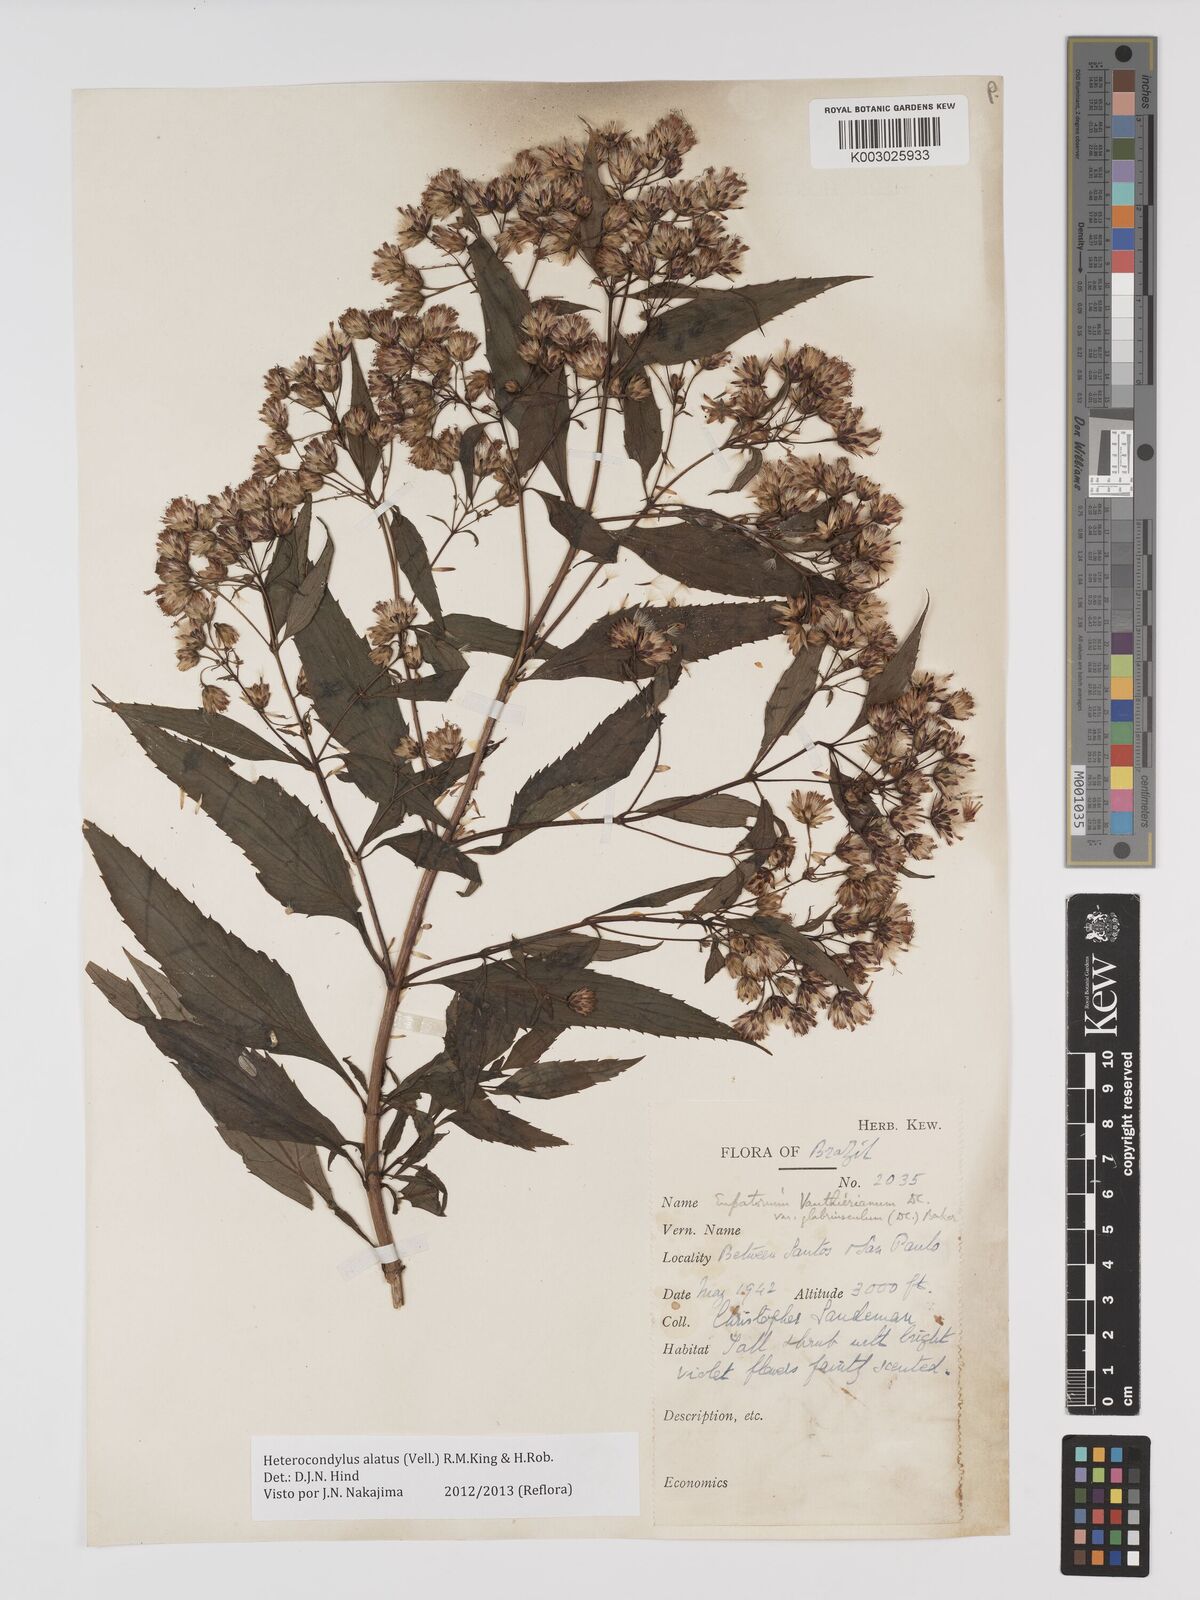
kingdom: Plantae
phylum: Tracheophyta
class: Magnoliopsida
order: Asterales
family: Asteraceae
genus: Heterocondylus
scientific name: Heterocondylus alatus
